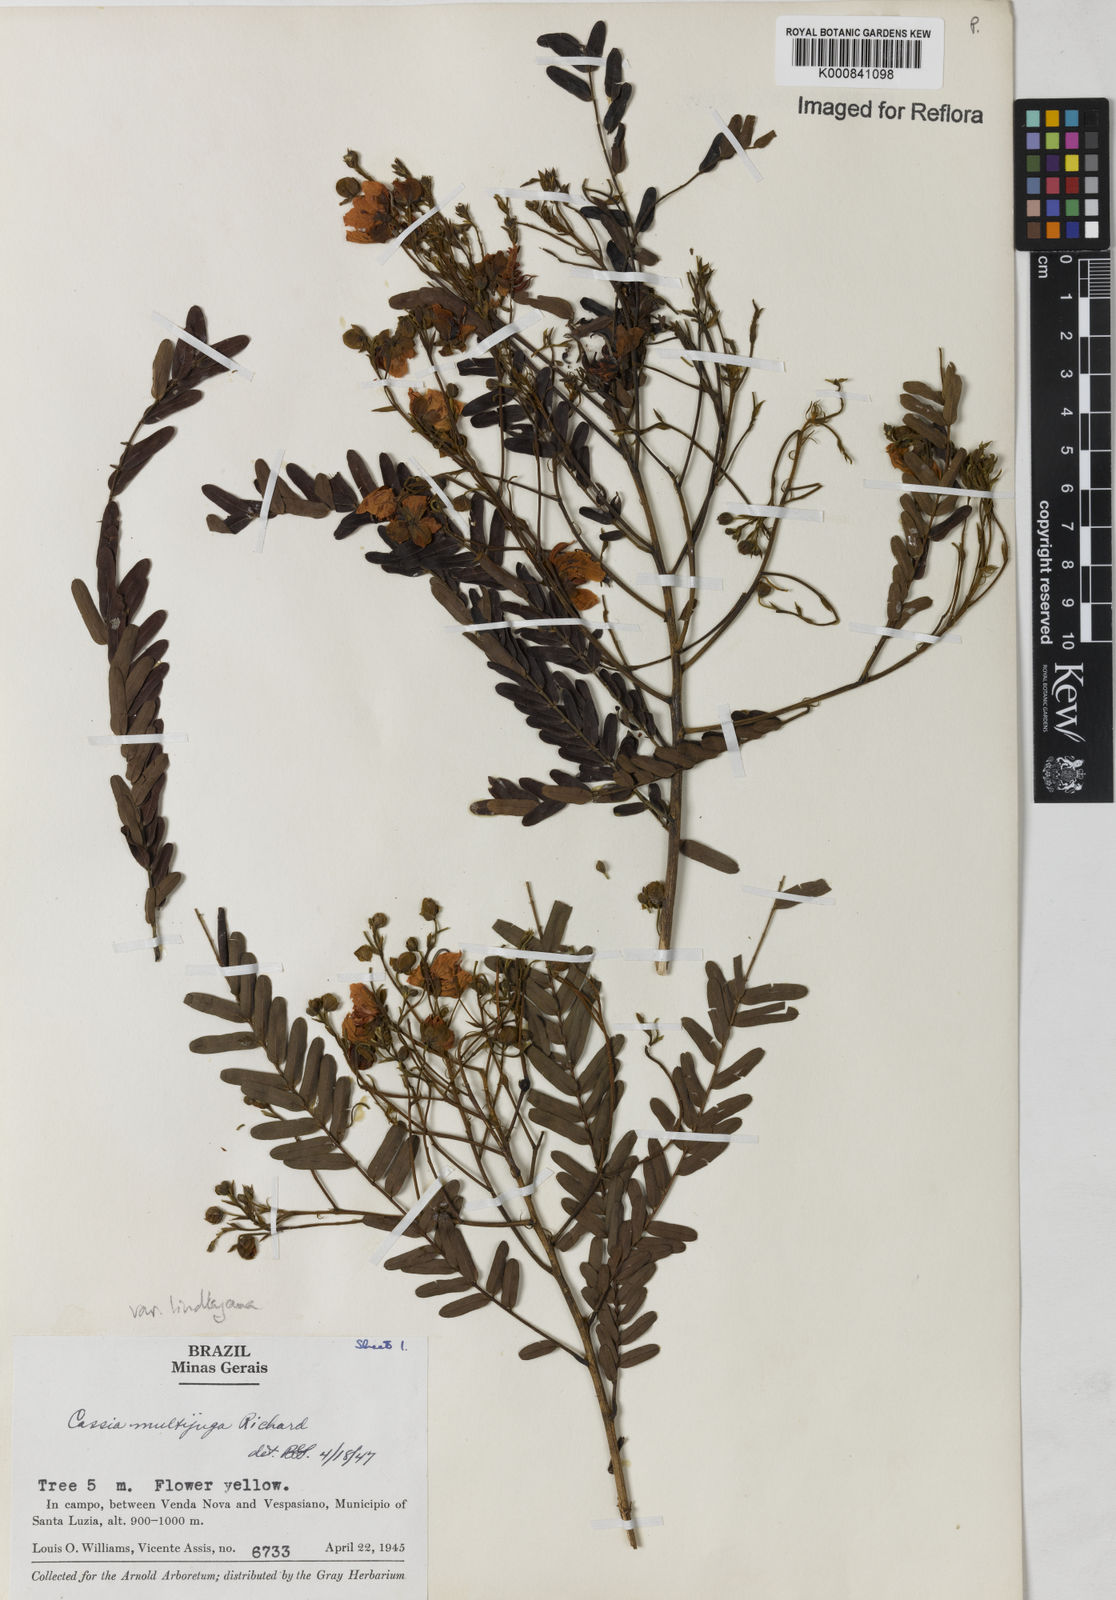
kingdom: Plantae
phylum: Tracheophyta
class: Magnoliopsida
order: Fabales
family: Fabaceae
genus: Senna
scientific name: Senna multijuga
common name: False sicklepod
